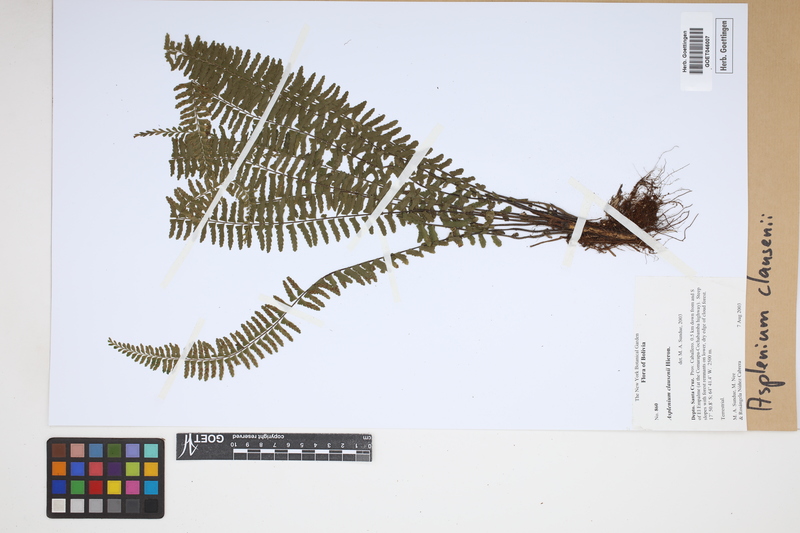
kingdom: Plantae
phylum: Tracheophyta
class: Polypodiopsida
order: Polypodiales
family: Aspleniaceae
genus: Asplenium
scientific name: Asplenium claussenii
